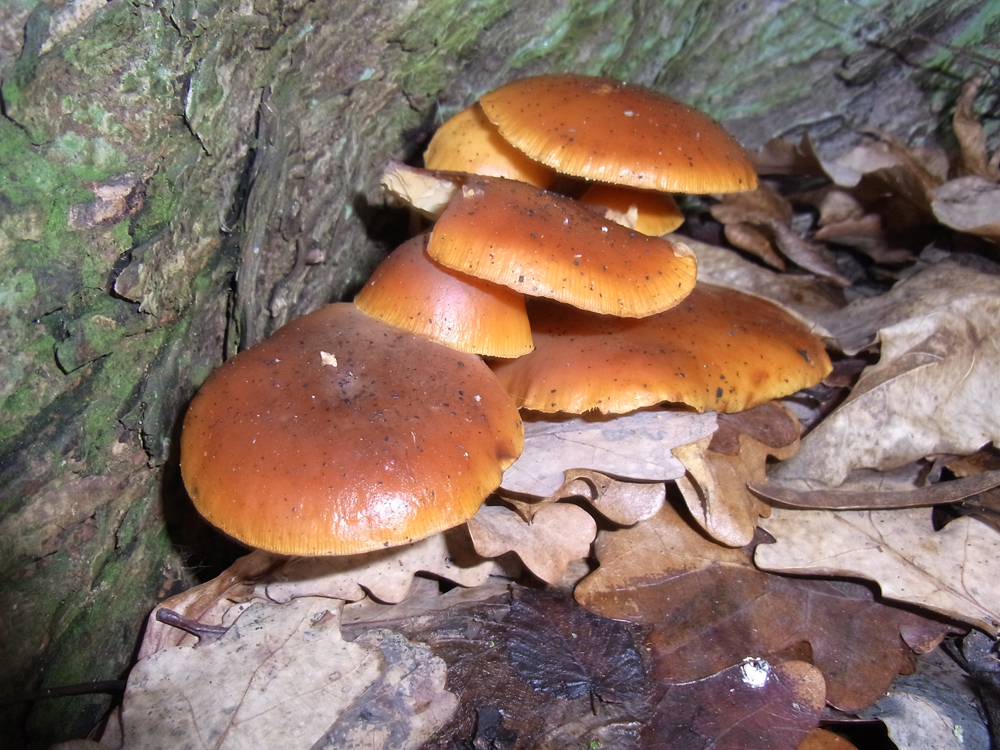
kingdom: Fungi
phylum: Basidiomycota
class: Agaricomycetes
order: Agaricales
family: Physalacriaceae
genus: Flammulina
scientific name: Flammulina velutipes
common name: Velvet shank
